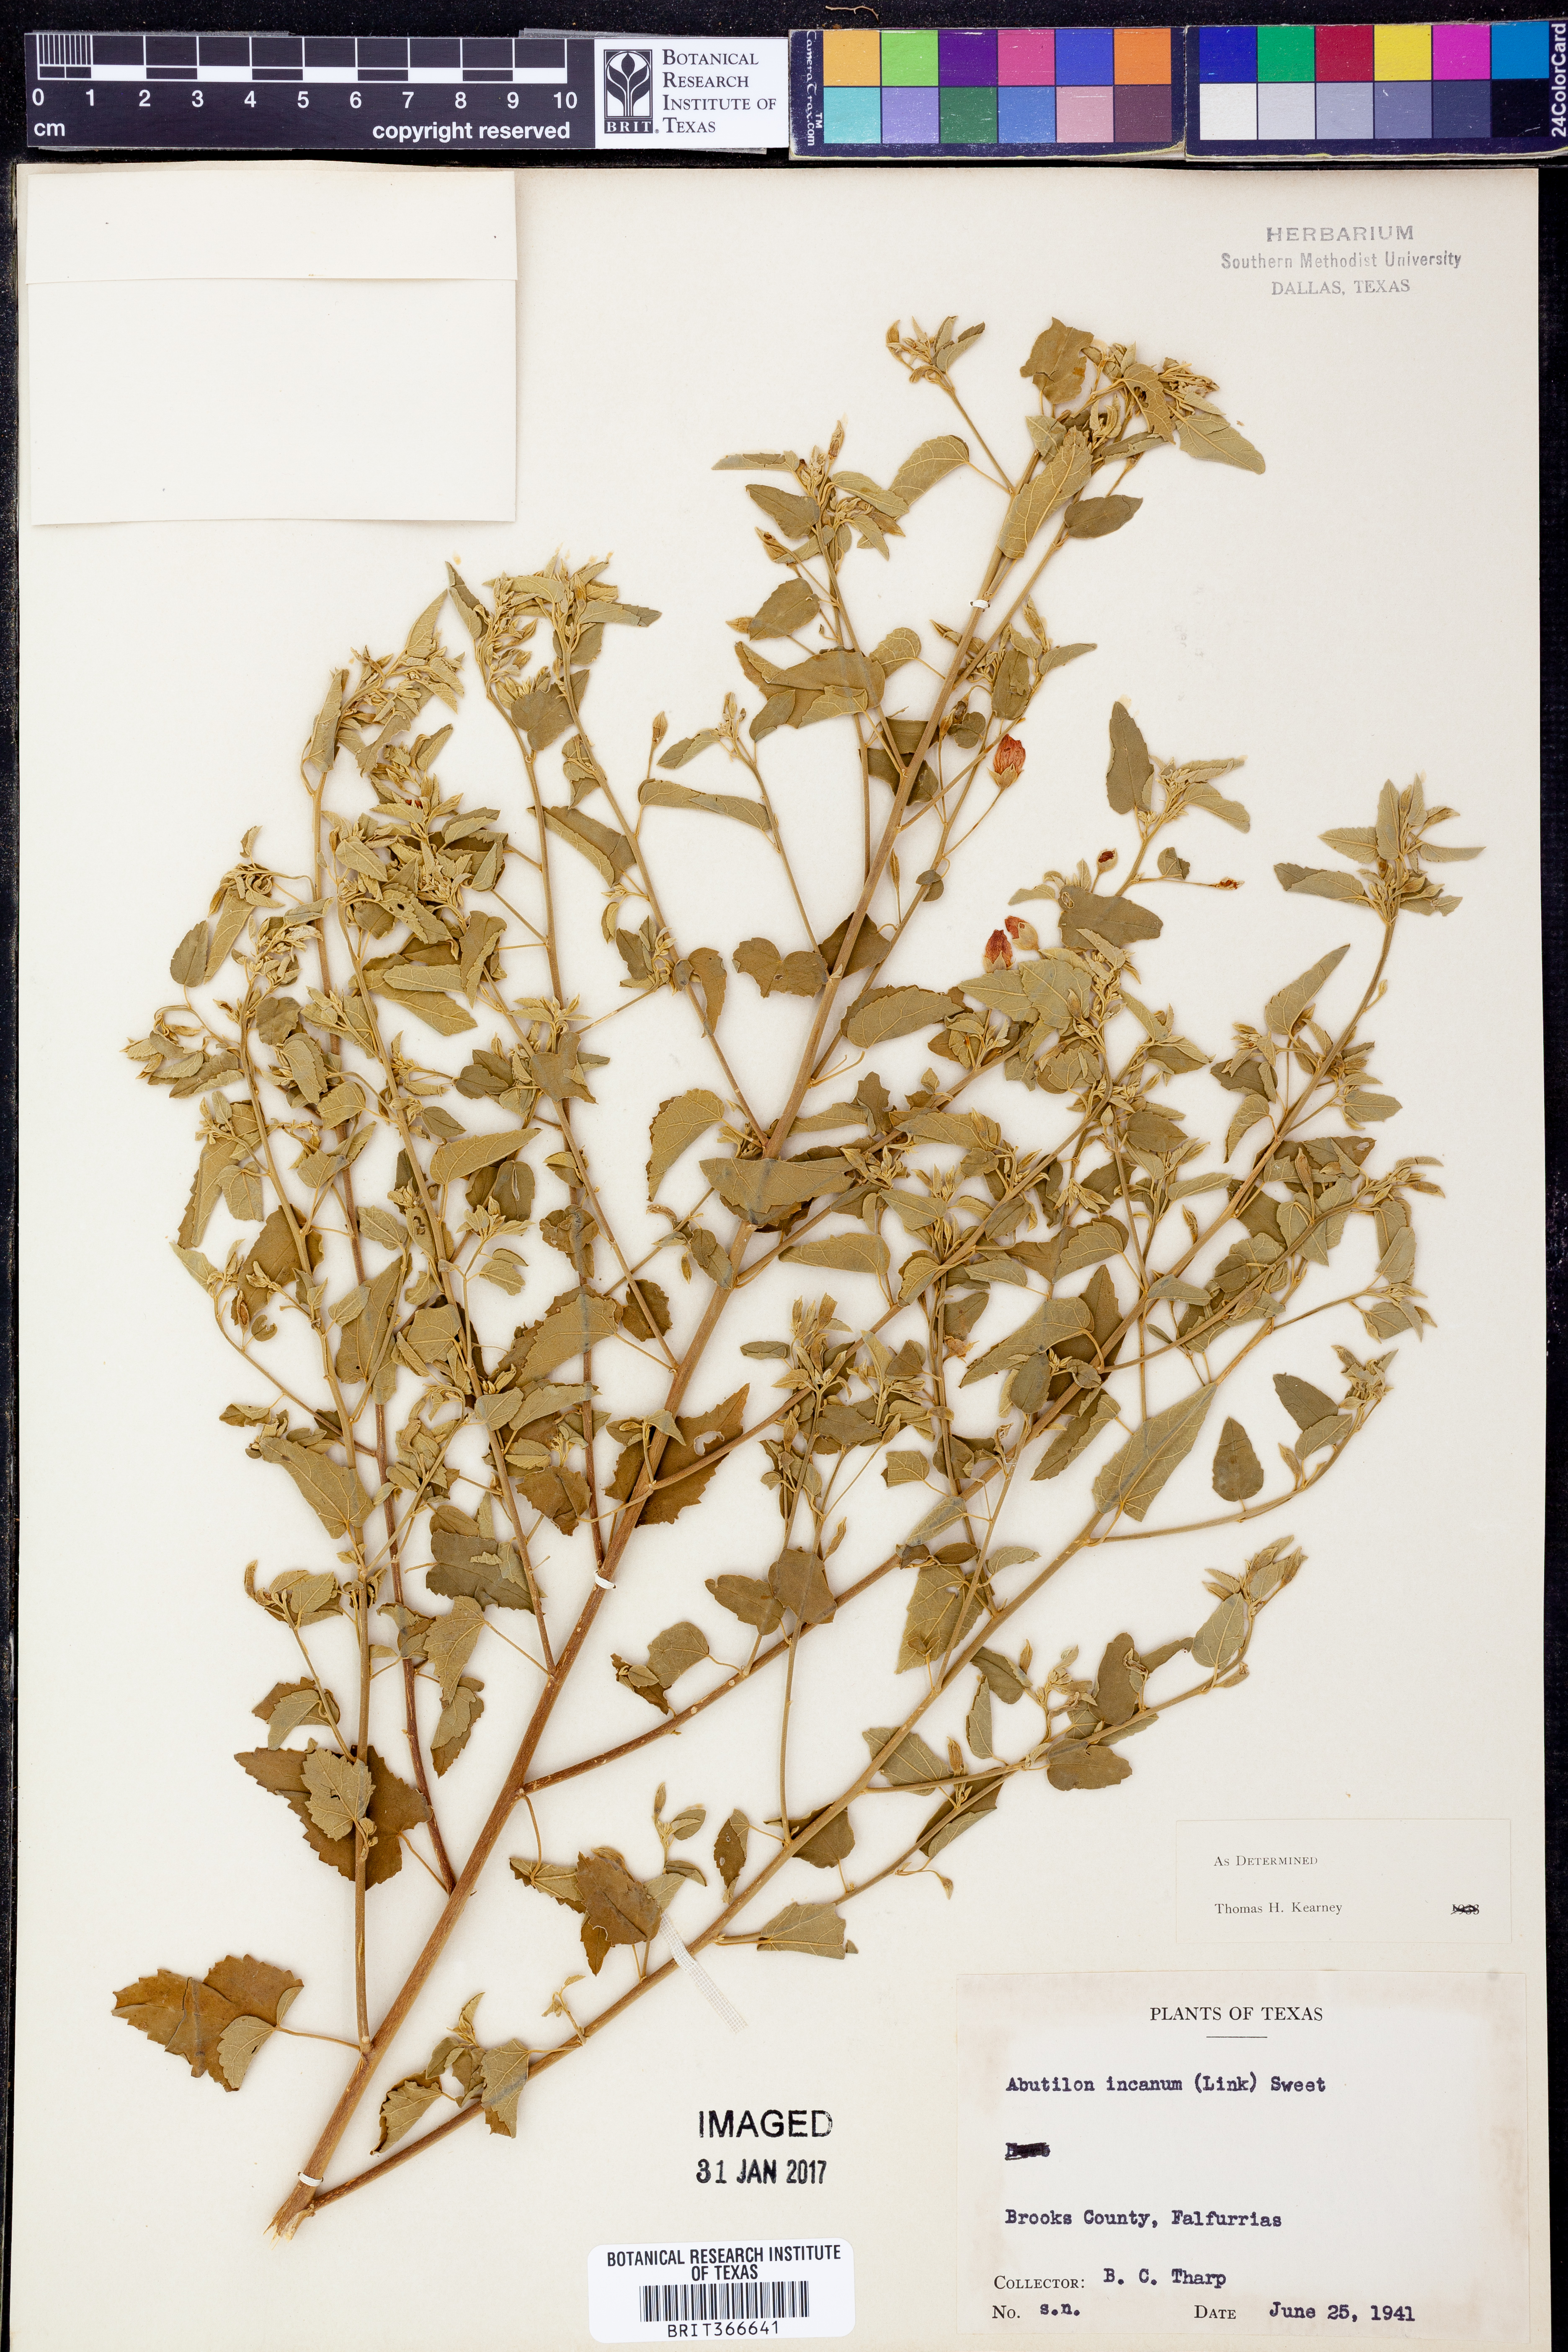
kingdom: Plantae
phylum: Tracheophyta
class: Magnoliopsida
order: Malvales
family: Malvaceae
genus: Abutilon
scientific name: Abutilon incanum
